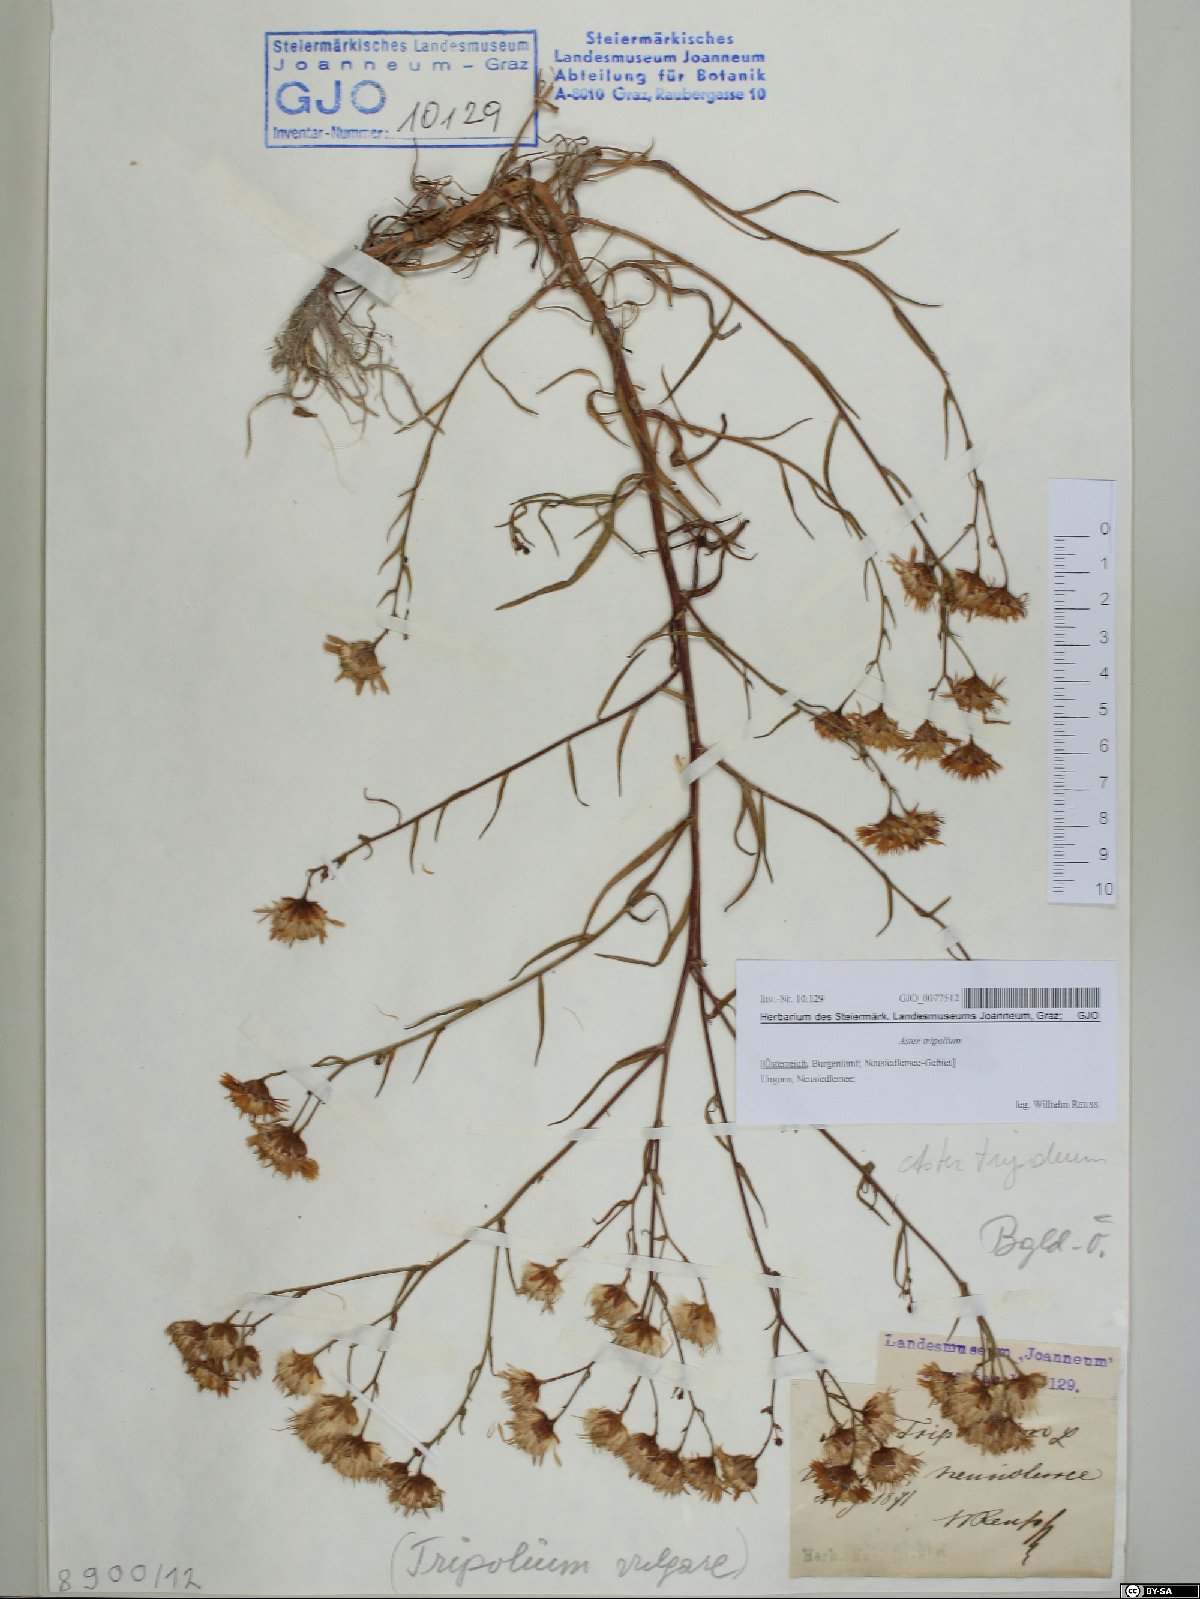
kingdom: Plantae
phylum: Tracheophyta
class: Magnoliopsida
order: Asterales
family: Asteraceae
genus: Tripolium
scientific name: Tripolium pannonicum
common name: Sea aster
